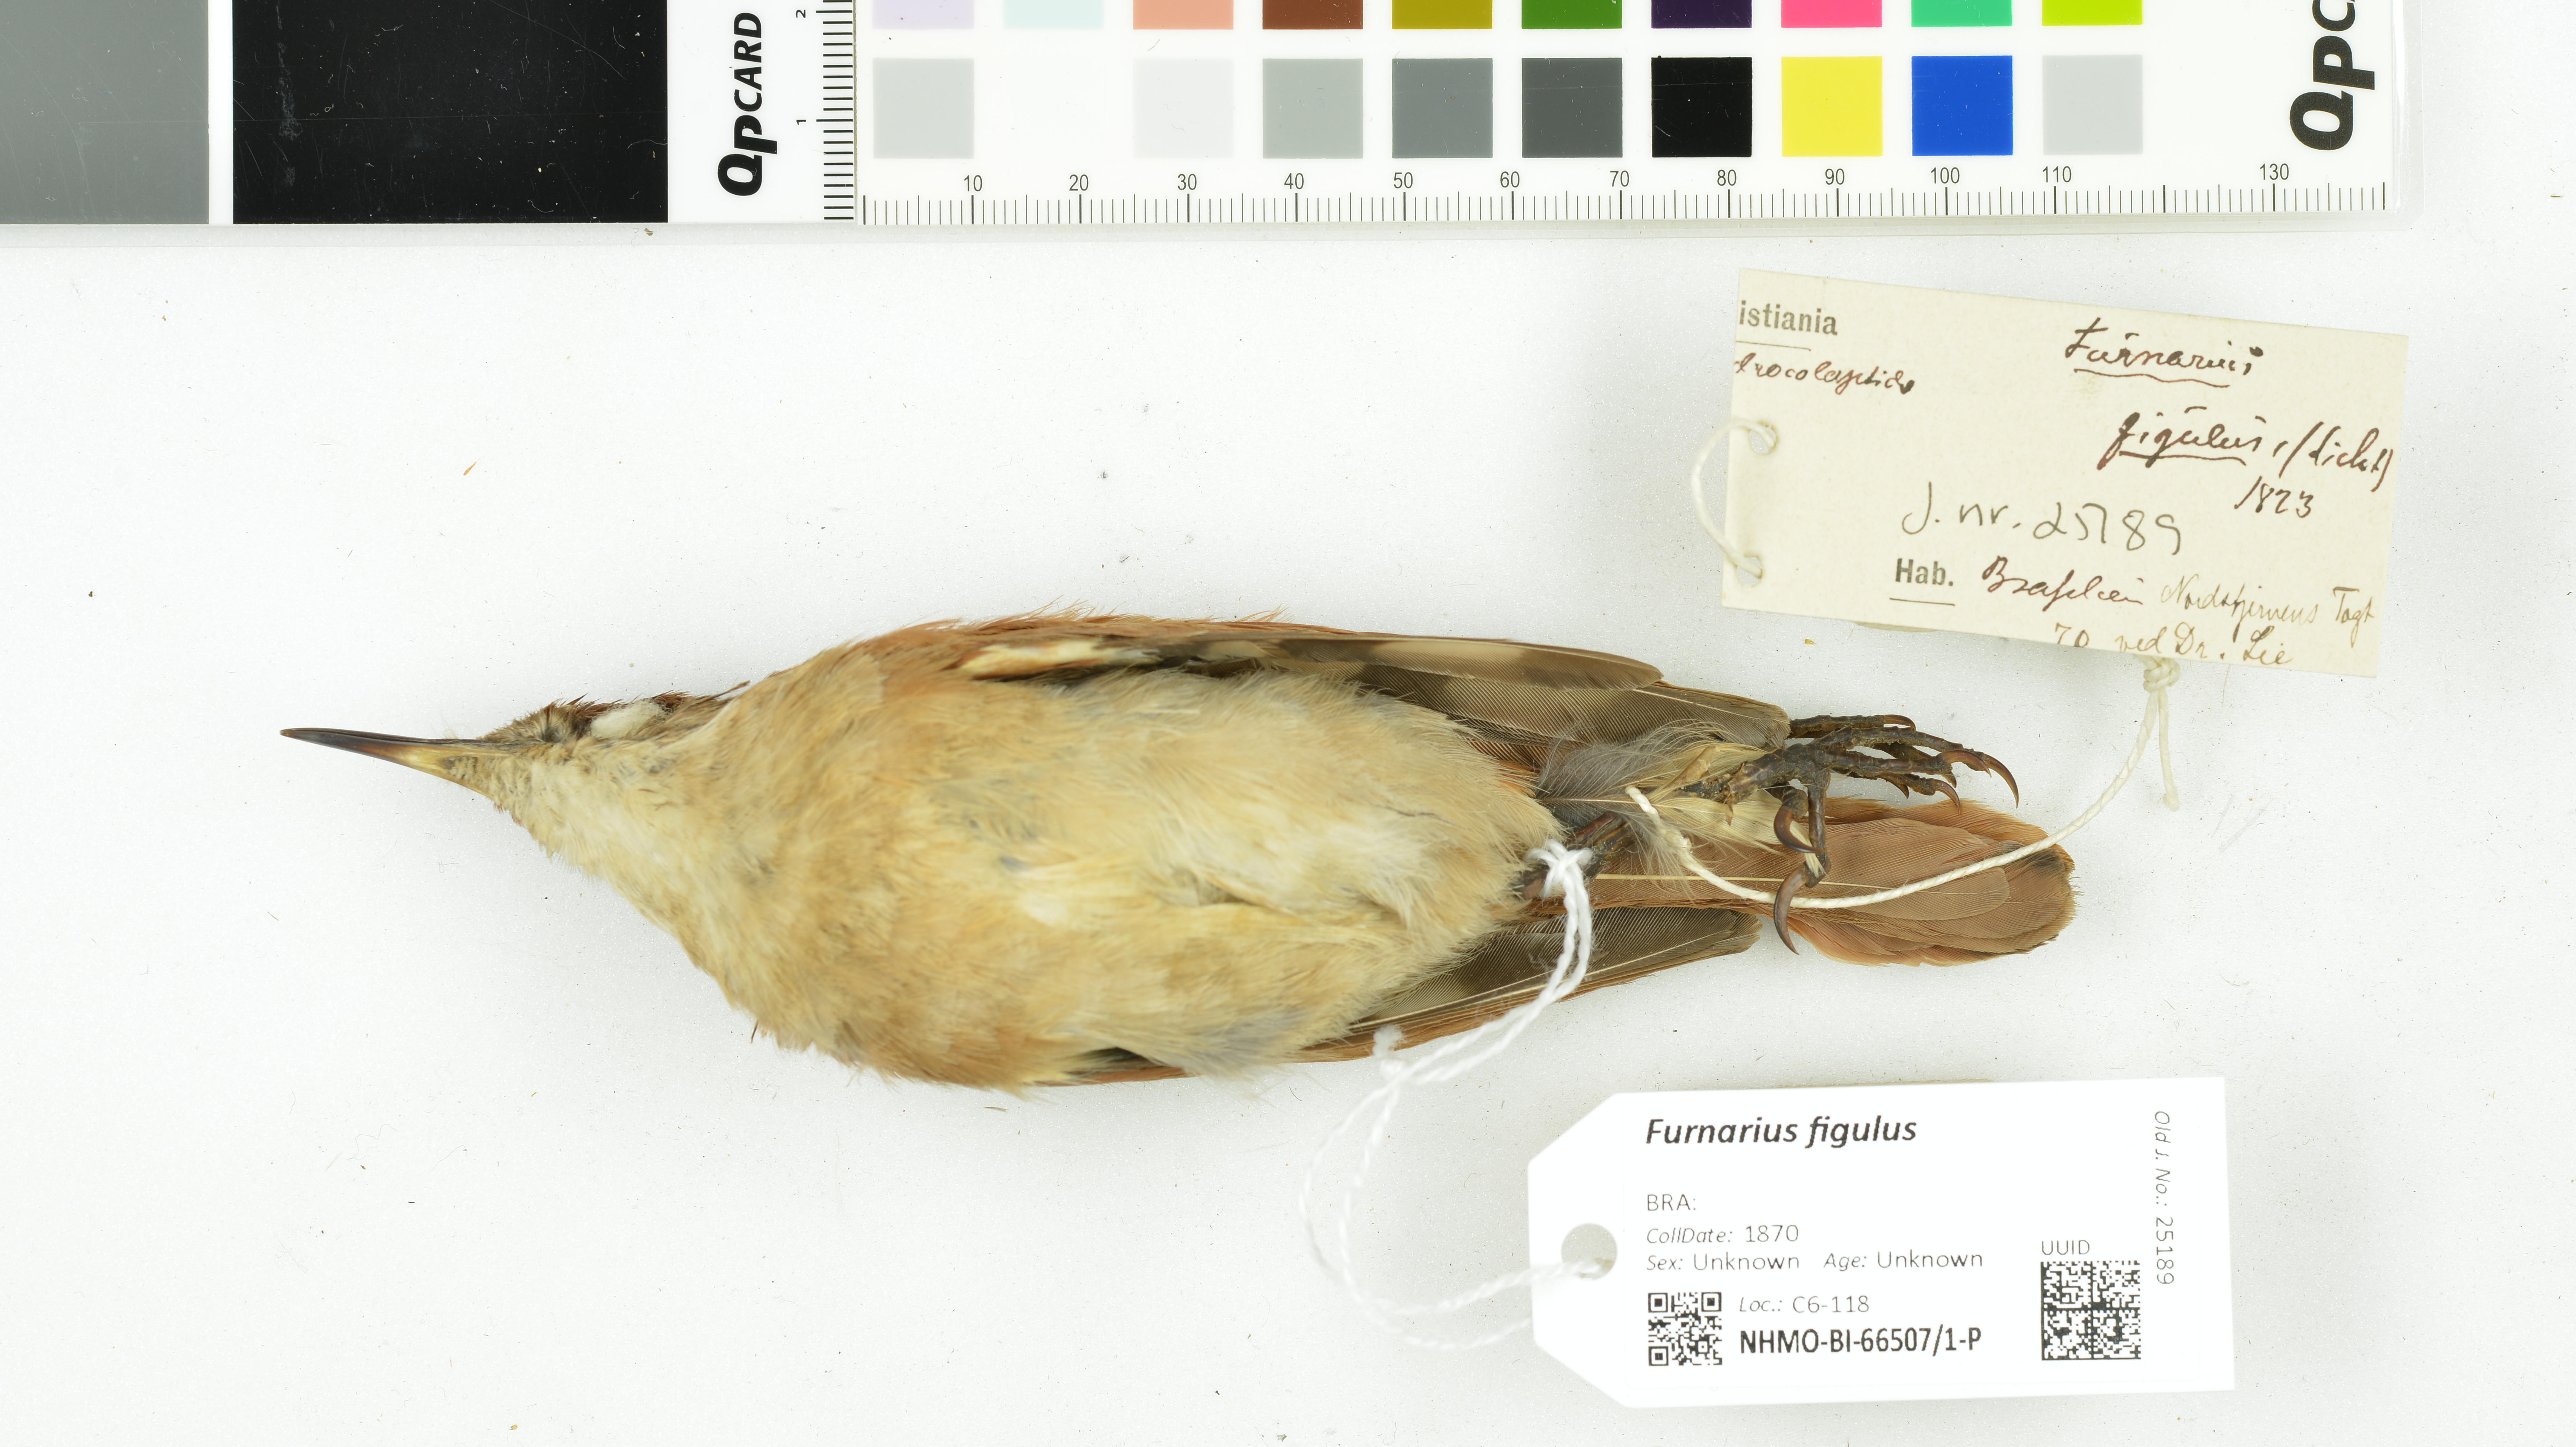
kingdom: Animalia
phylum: Chordata
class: Aves
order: Passeriformes
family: Furnariidae
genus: Furnarius
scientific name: Furnarius figulus
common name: Band-tailed hornero
